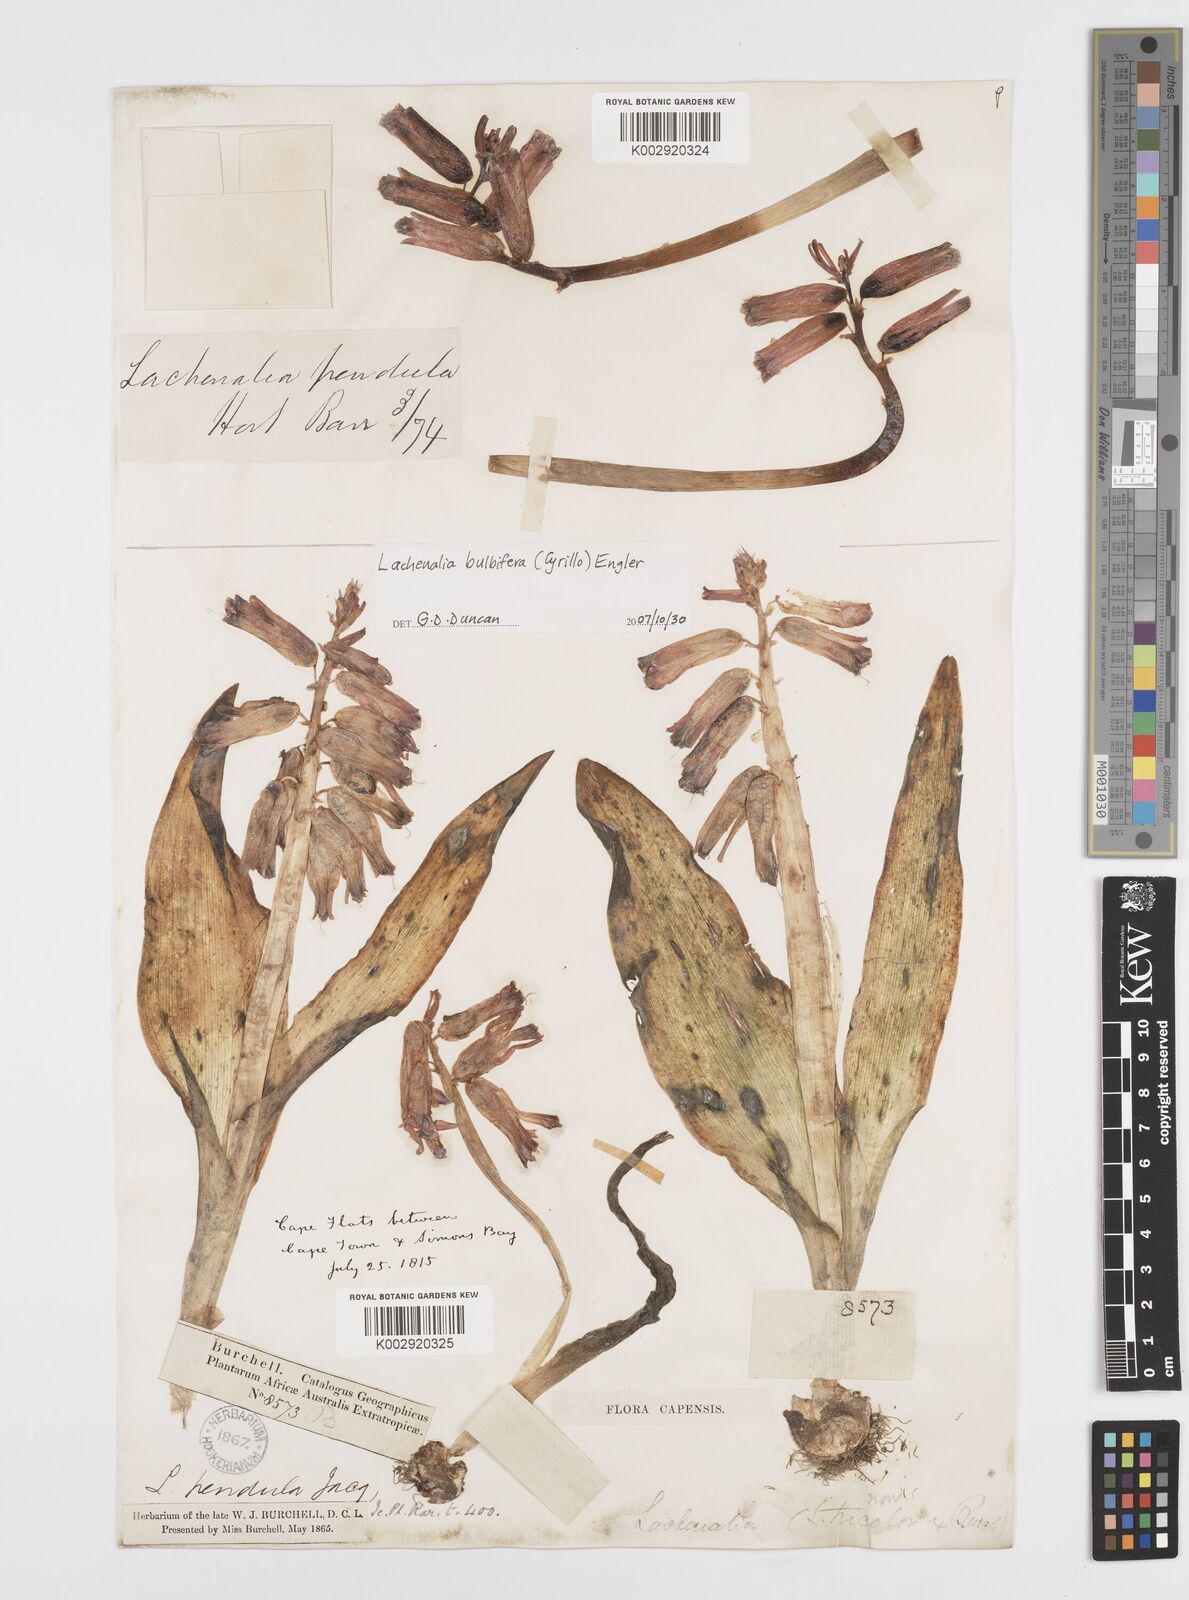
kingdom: Plantae
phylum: Tracheophyta
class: Liliopsida
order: Asparagales
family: Asparagaceae
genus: Lachenalia
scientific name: Lachenalia bulbifera
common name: Red lachenalia
